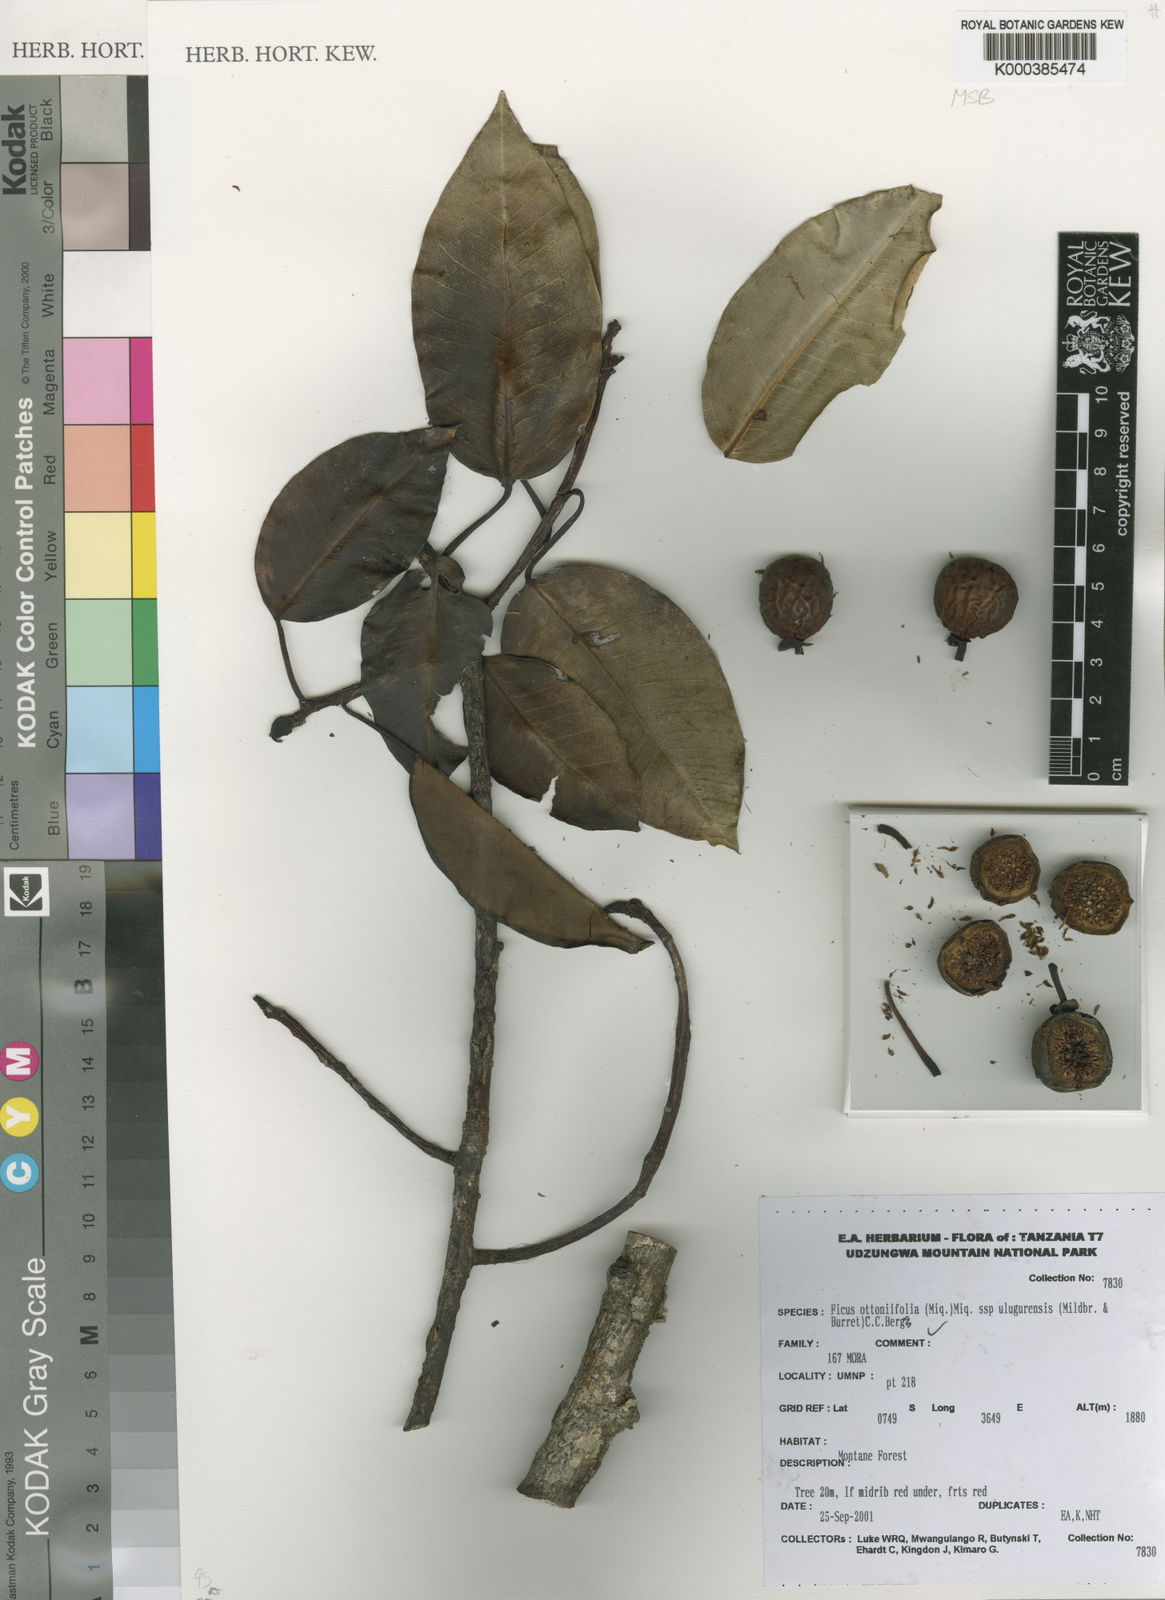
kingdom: Plantae
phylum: Tracheophyta
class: Magnoliopsida
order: Rosales
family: Moraceae
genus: Ficus
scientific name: Ficus ottoniifolia
